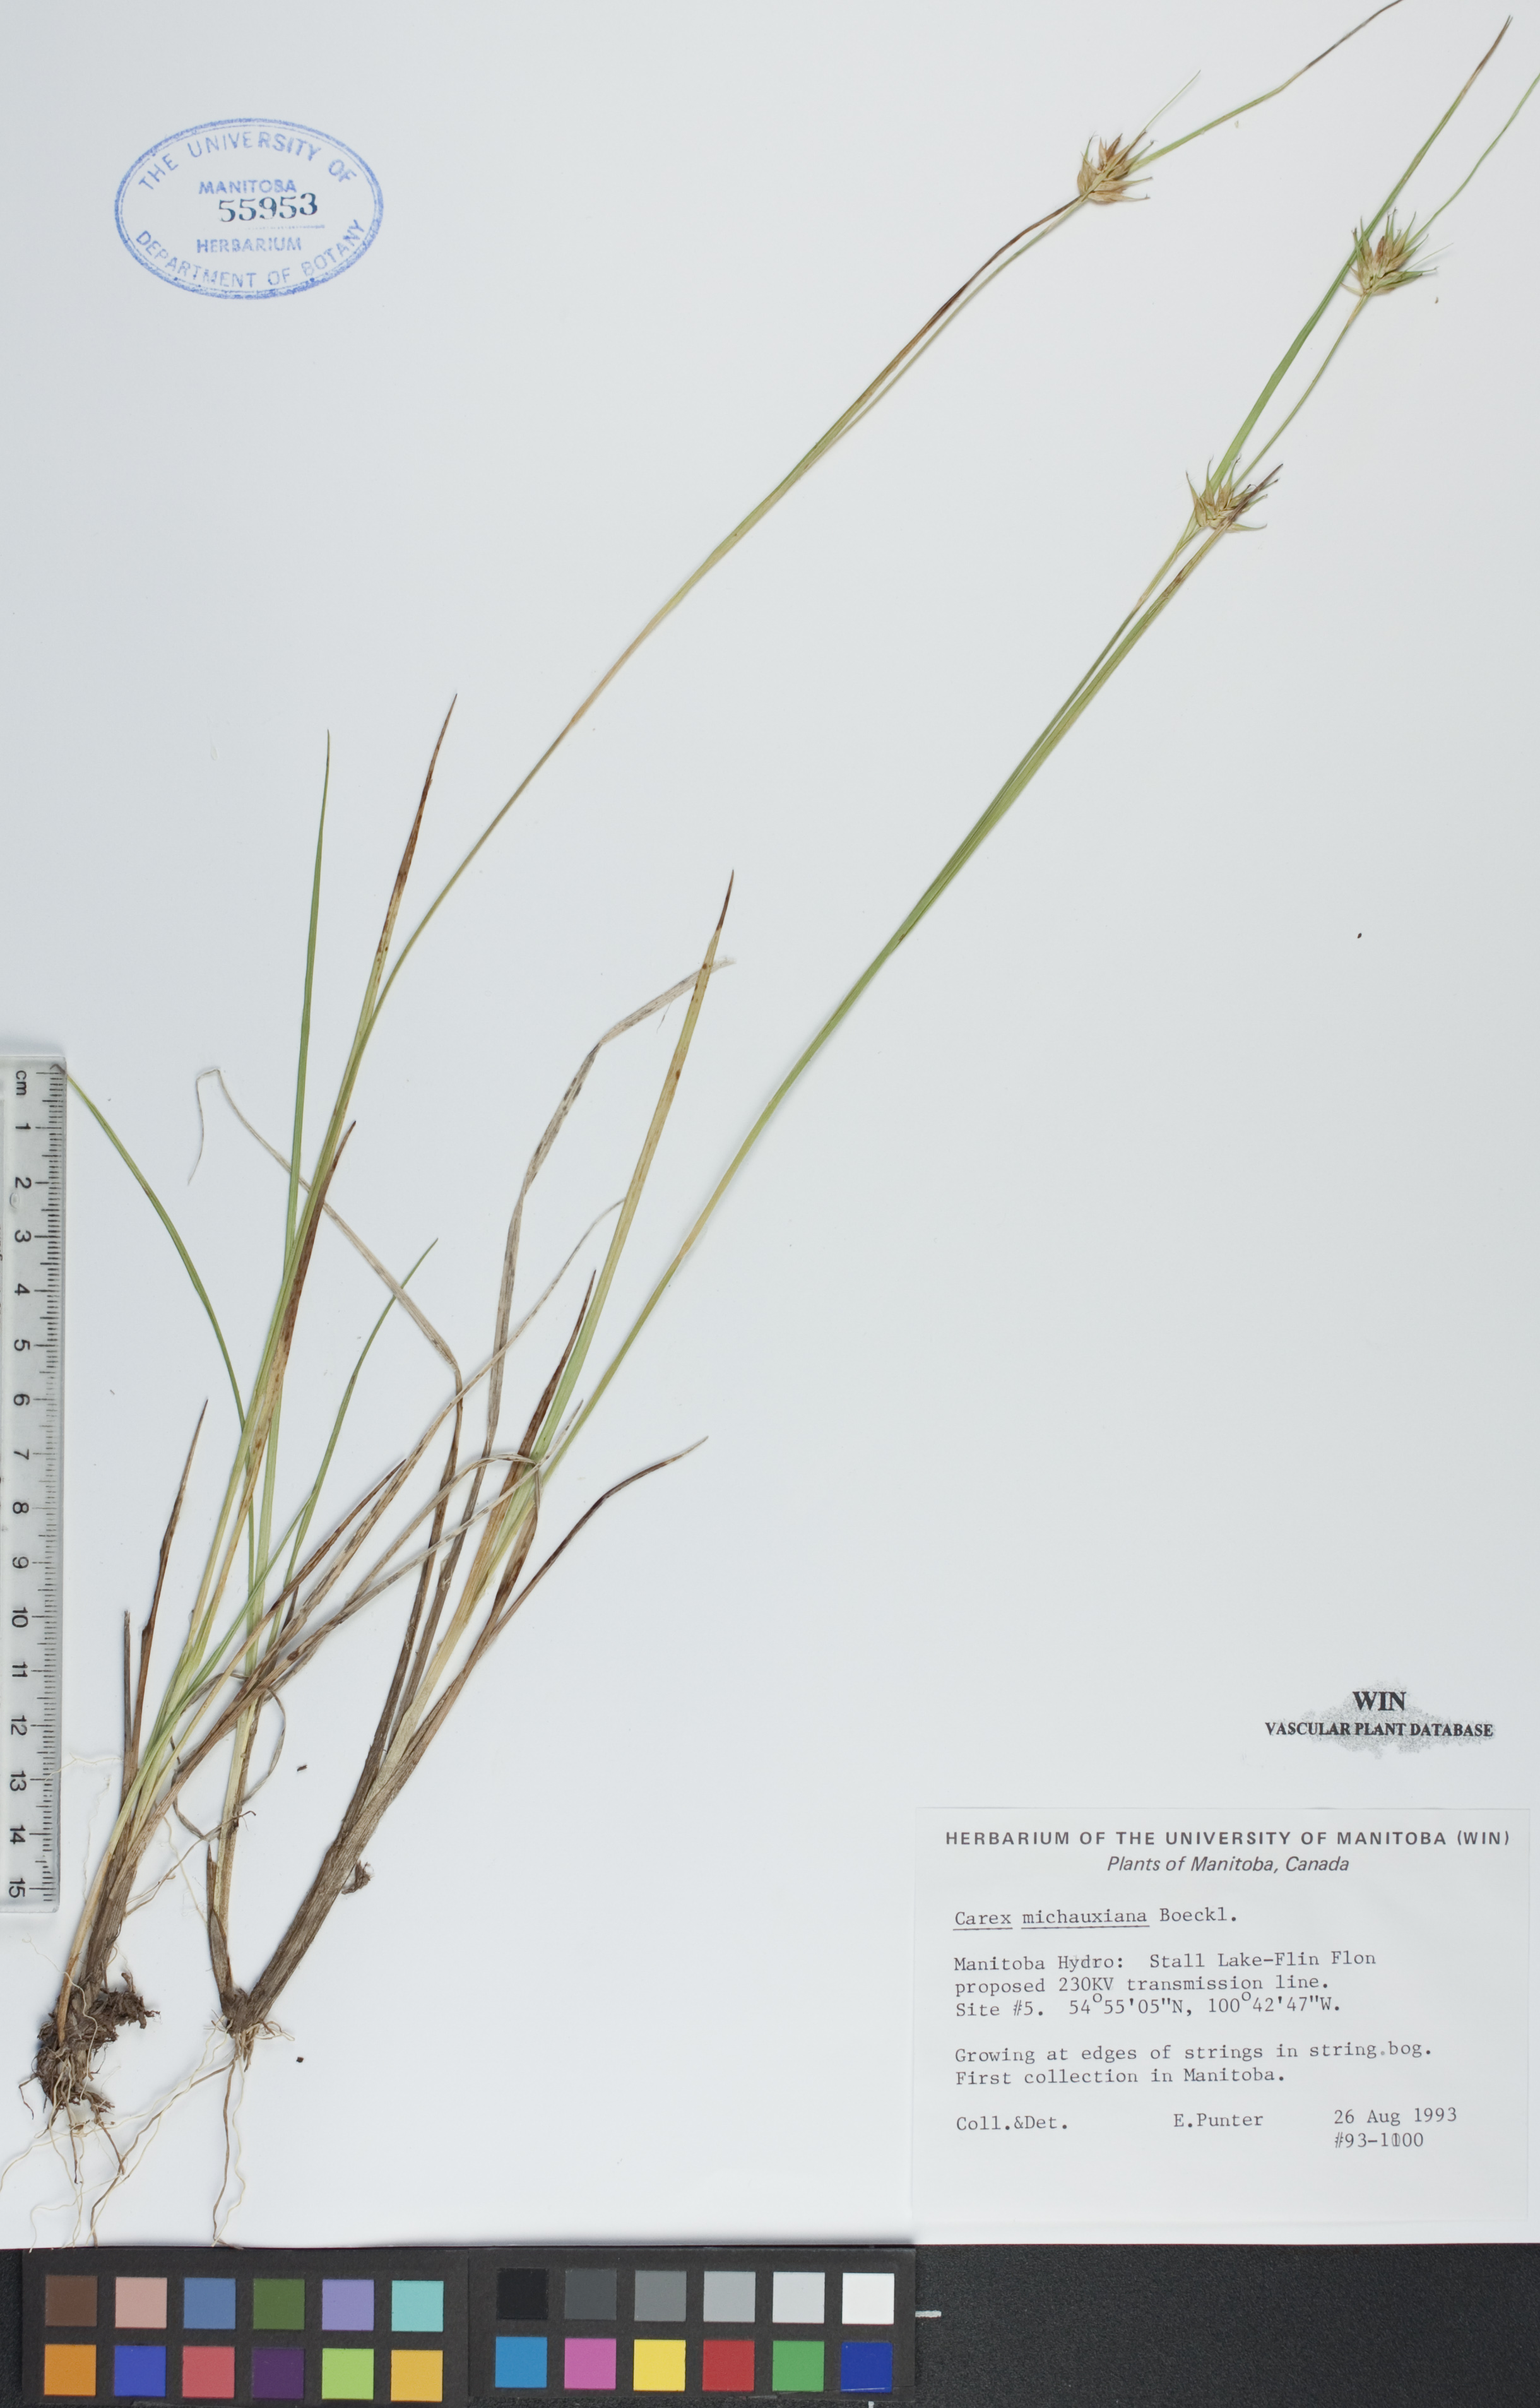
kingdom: Plantae
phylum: Tracheophyta
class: Liliopsida
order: Poales
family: Cyperaceae
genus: Carex
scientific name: Carex michauxiana
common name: Michaux's sedge
